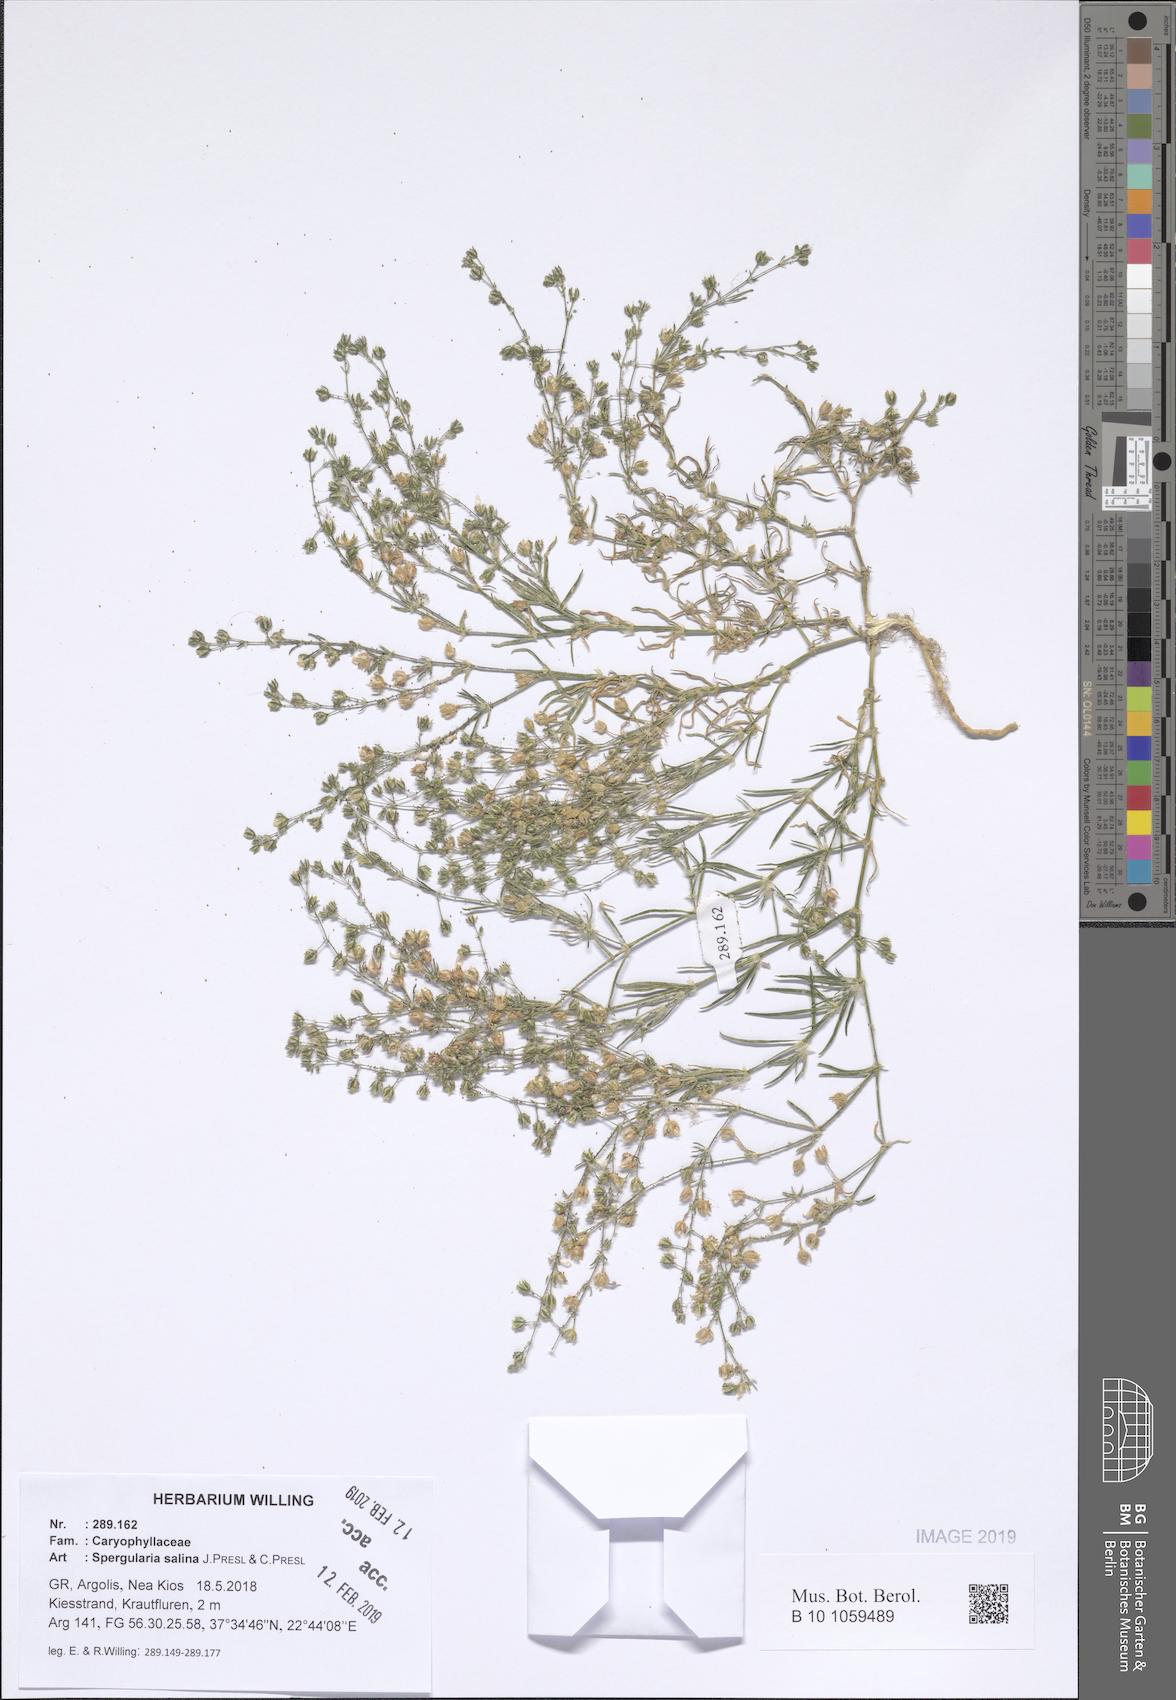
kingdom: Plantae
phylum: Tracheophyta
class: Magnoliopsida
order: Caryophyllales
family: Caryophyllaceae
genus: Spergularia
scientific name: Spergularia marina
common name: Lesser sea-spurrey
